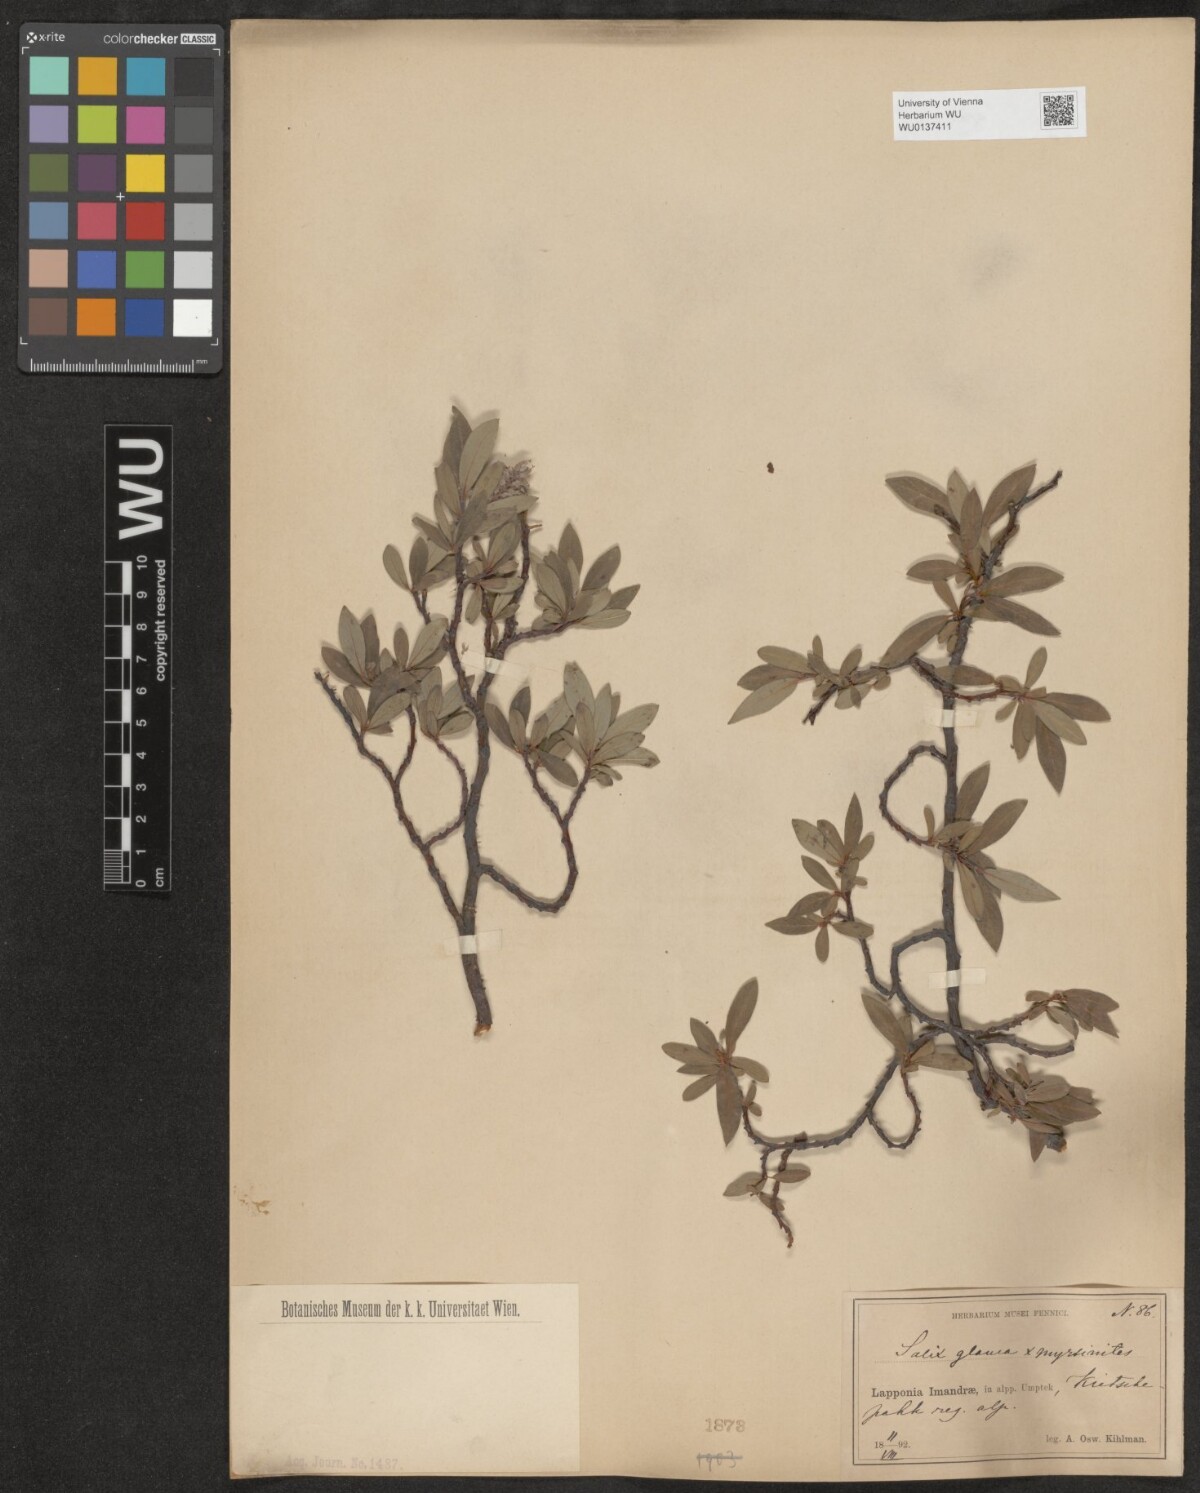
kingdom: Plantae
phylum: Tracheophyta
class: Magnoliopsida
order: Malpighiales
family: Salicaceae
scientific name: Salicaceae
